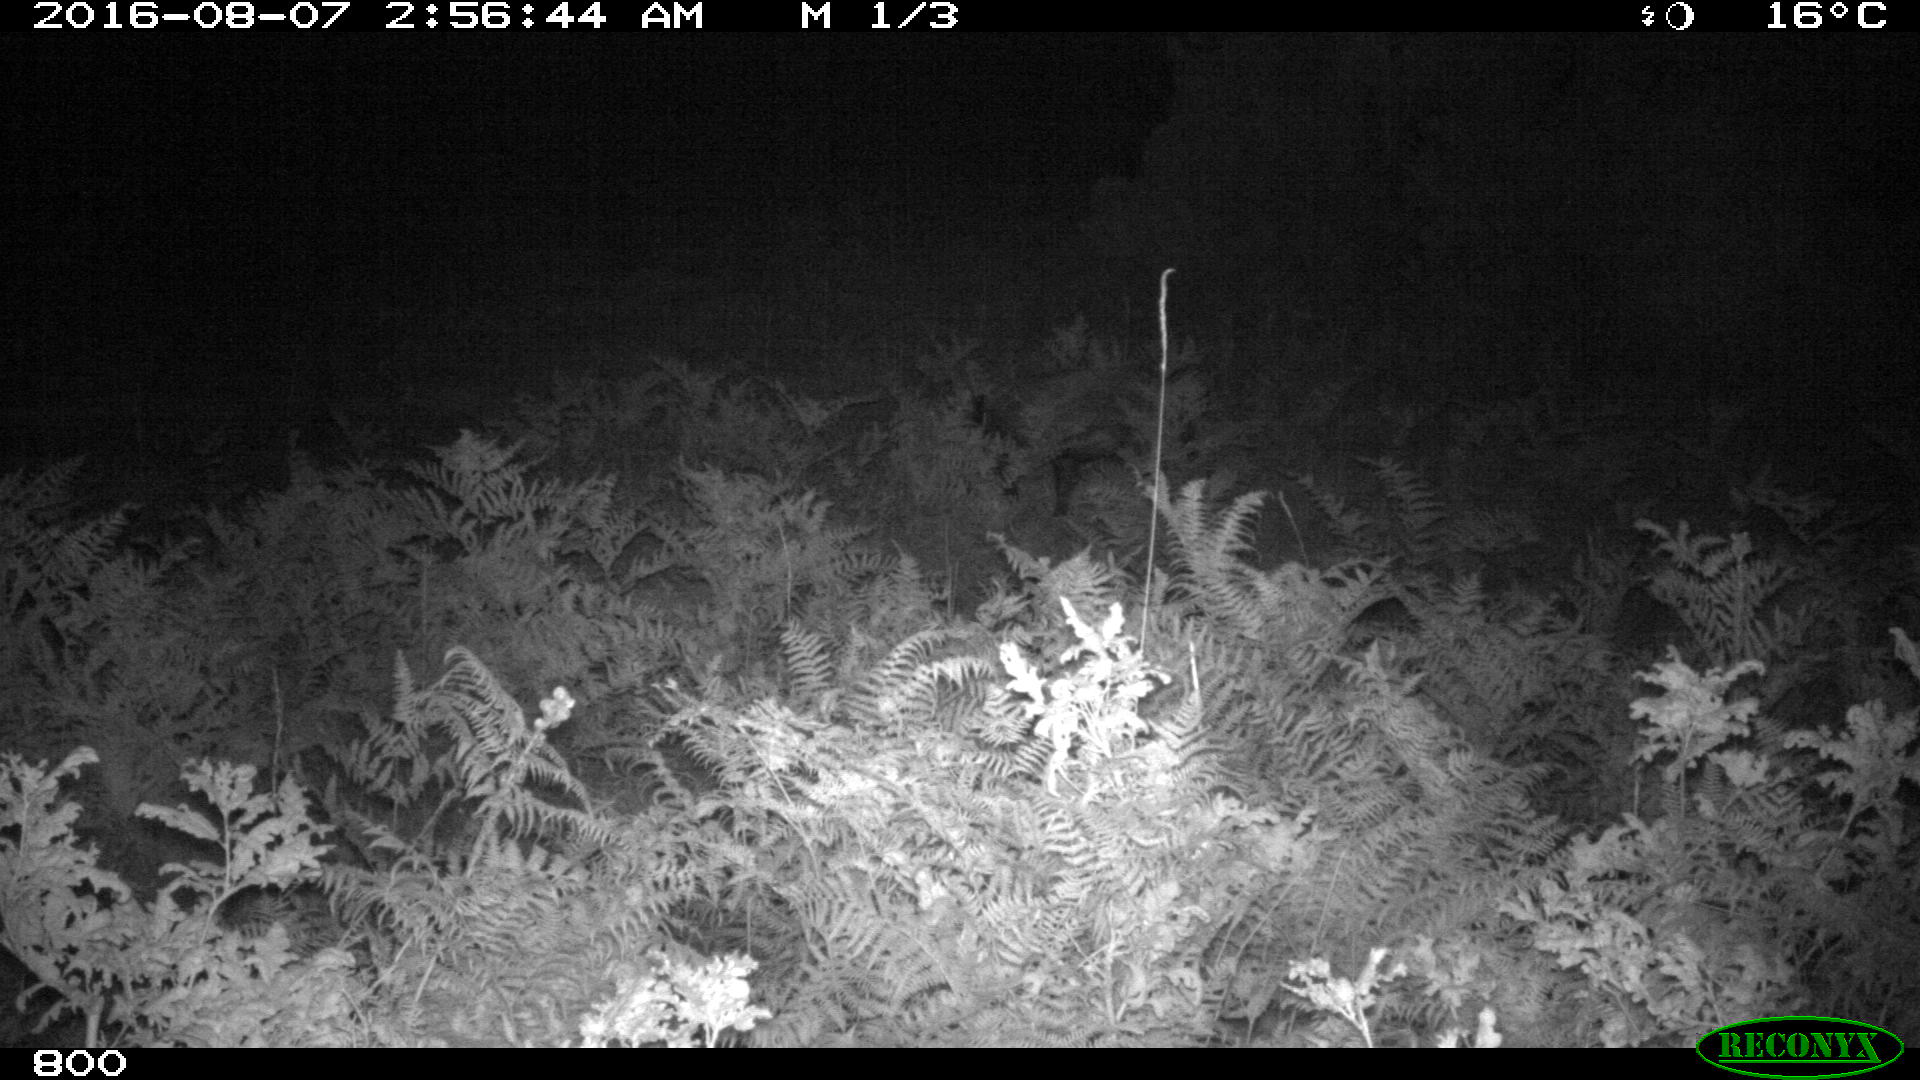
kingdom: Animalia
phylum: Chordata
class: Mammalia
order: Artiodactyla
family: Suidae
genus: Sus
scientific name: Sus scrofa
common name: Wild boar
